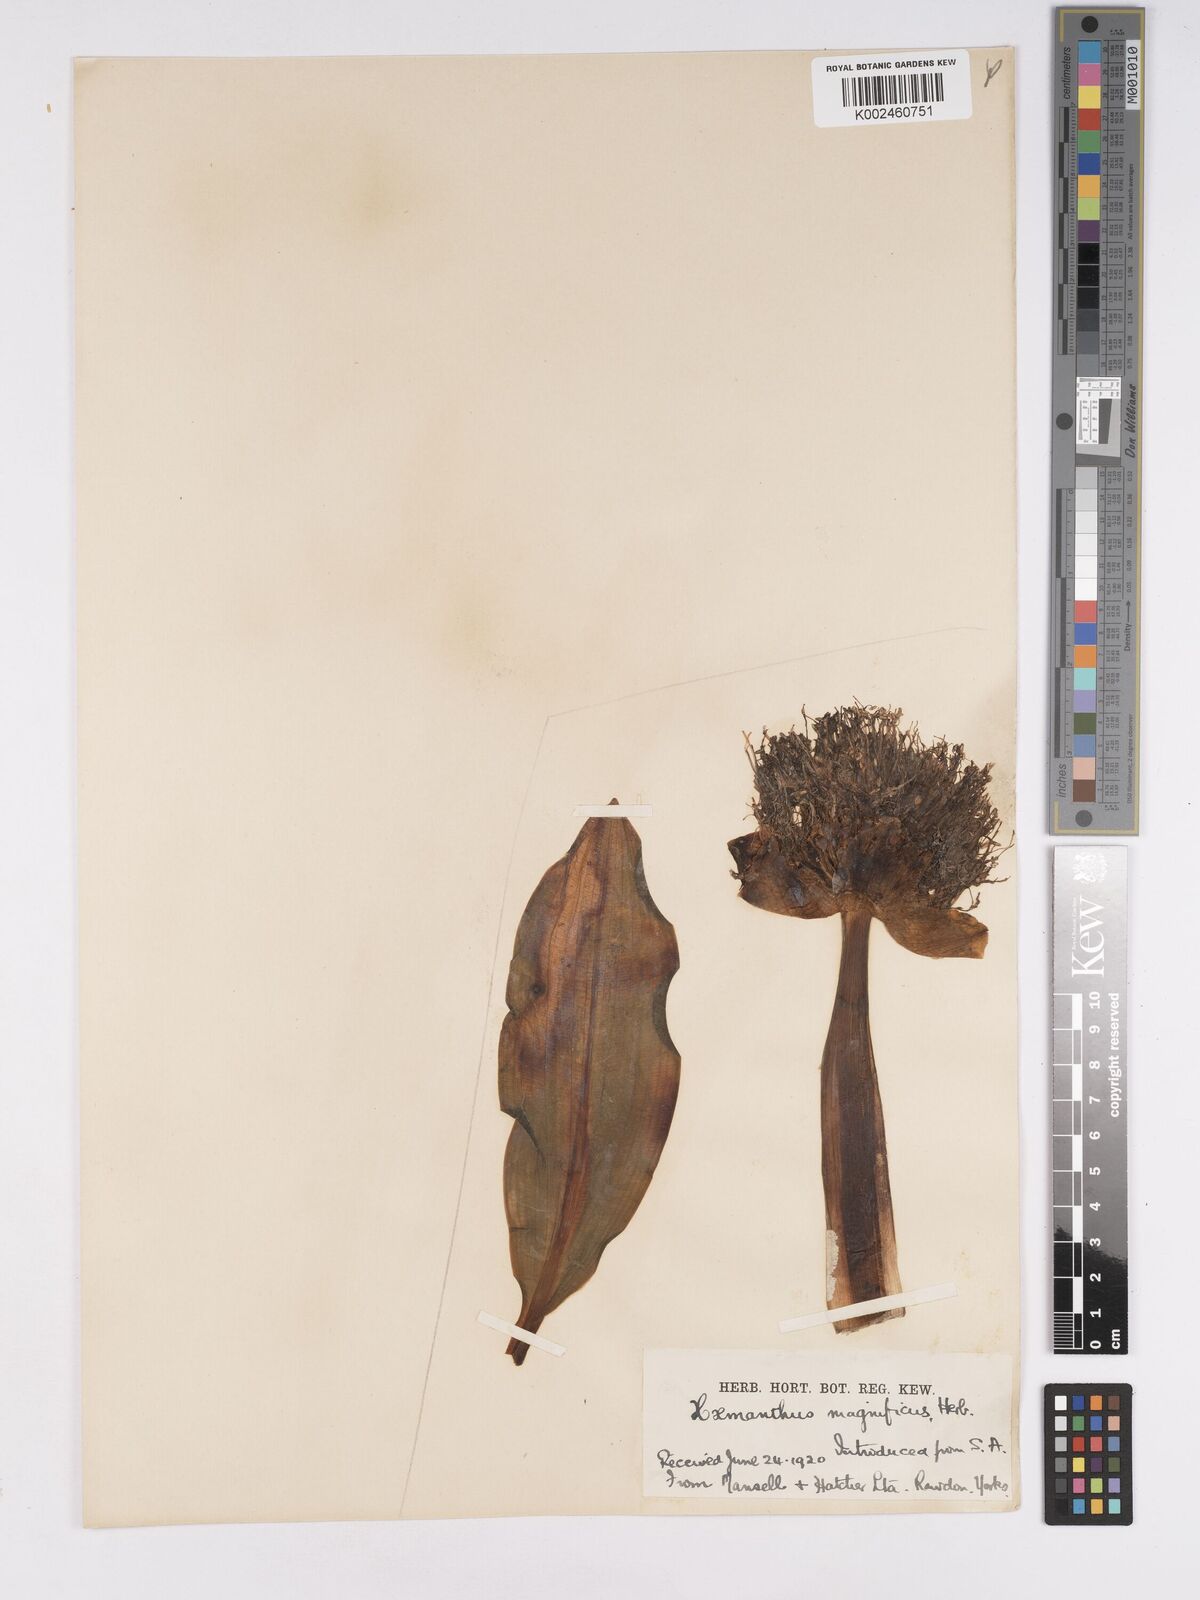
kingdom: Plantae
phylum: Tracheophyta
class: Liliopsida
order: Asparagales
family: Amaryllidaceae
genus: Scadoxus
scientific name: Scadoxus puniceus
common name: Royal-paintbrush
